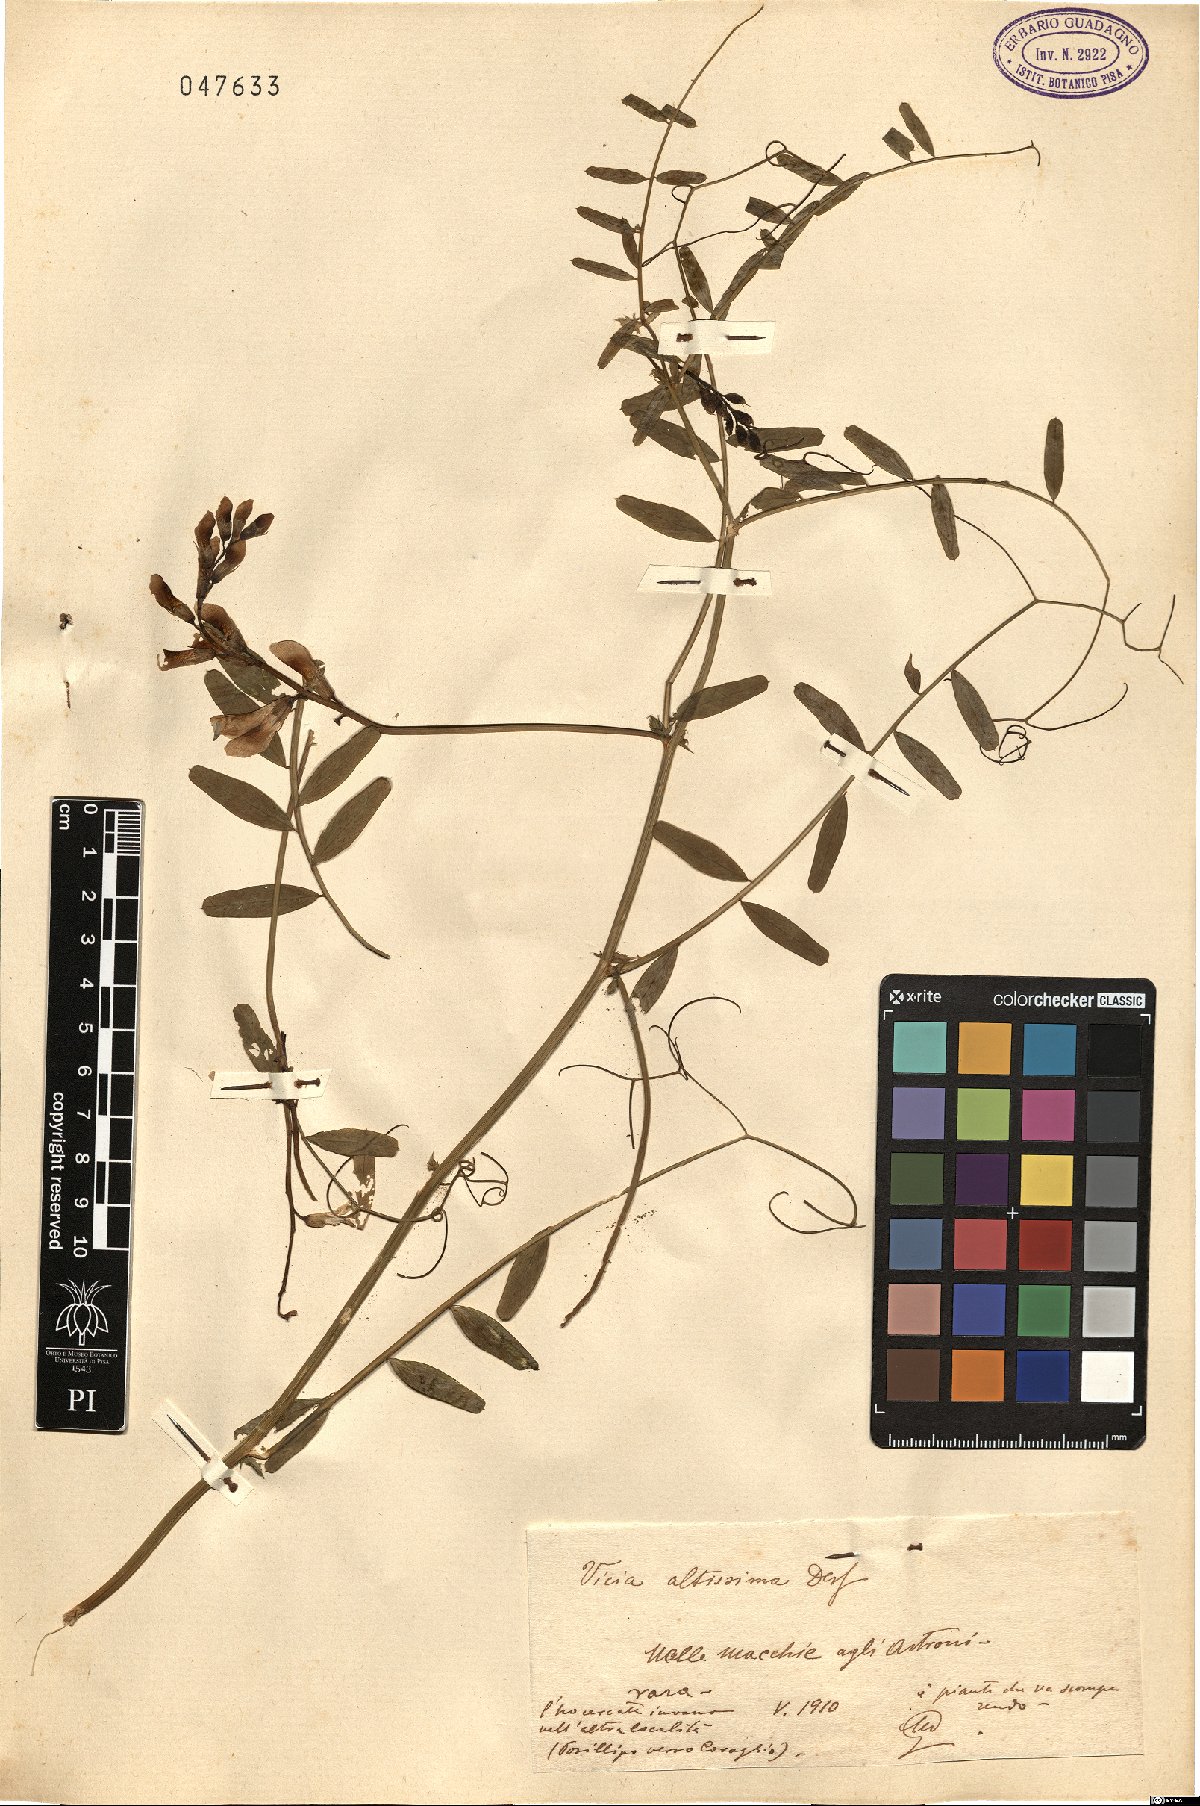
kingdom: Plantae
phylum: Tracheophyta
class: Magnoliopsida
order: Fabales
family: Fabaceae
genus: Vicia
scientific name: Vicia altissima
